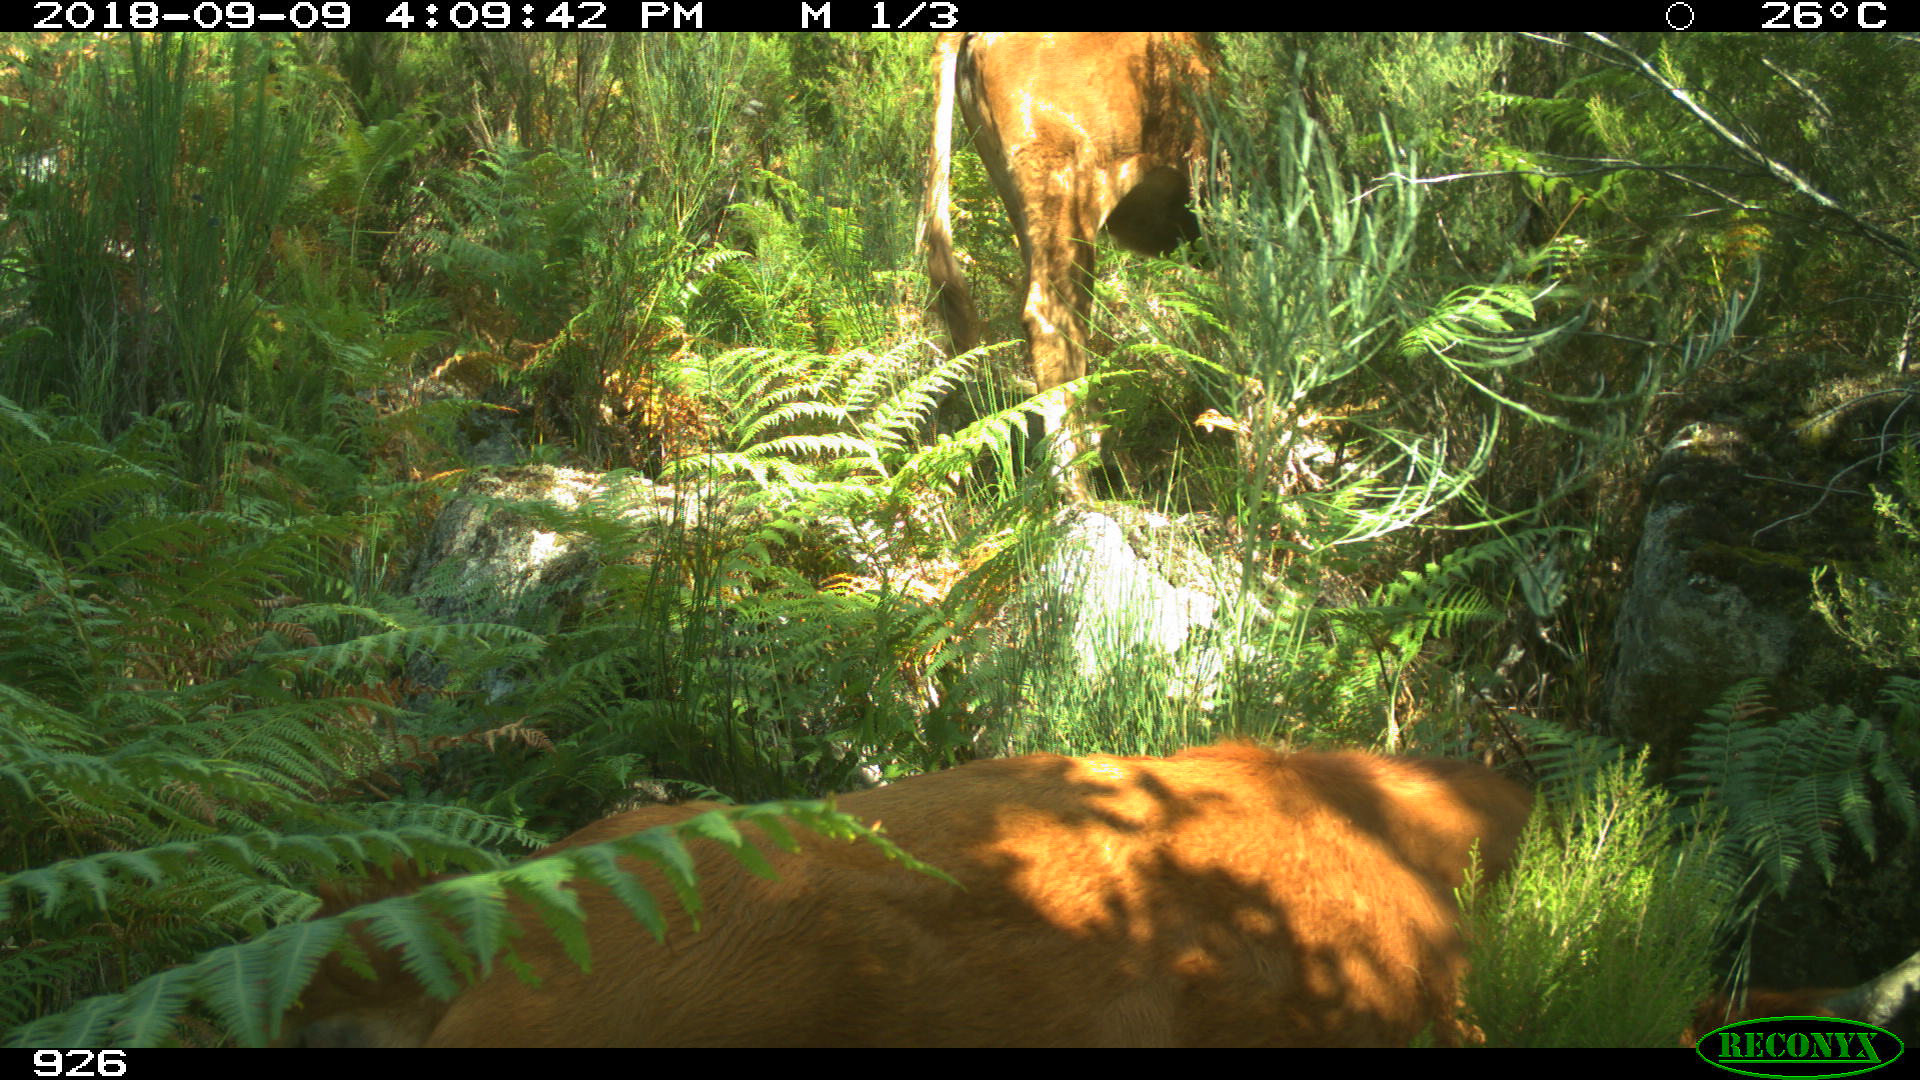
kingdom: Animalia
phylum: Chordata
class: Mammalia
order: Artiodactyla
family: Bovidae
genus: Bos
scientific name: Bos taurus
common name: Domesticated cattle
